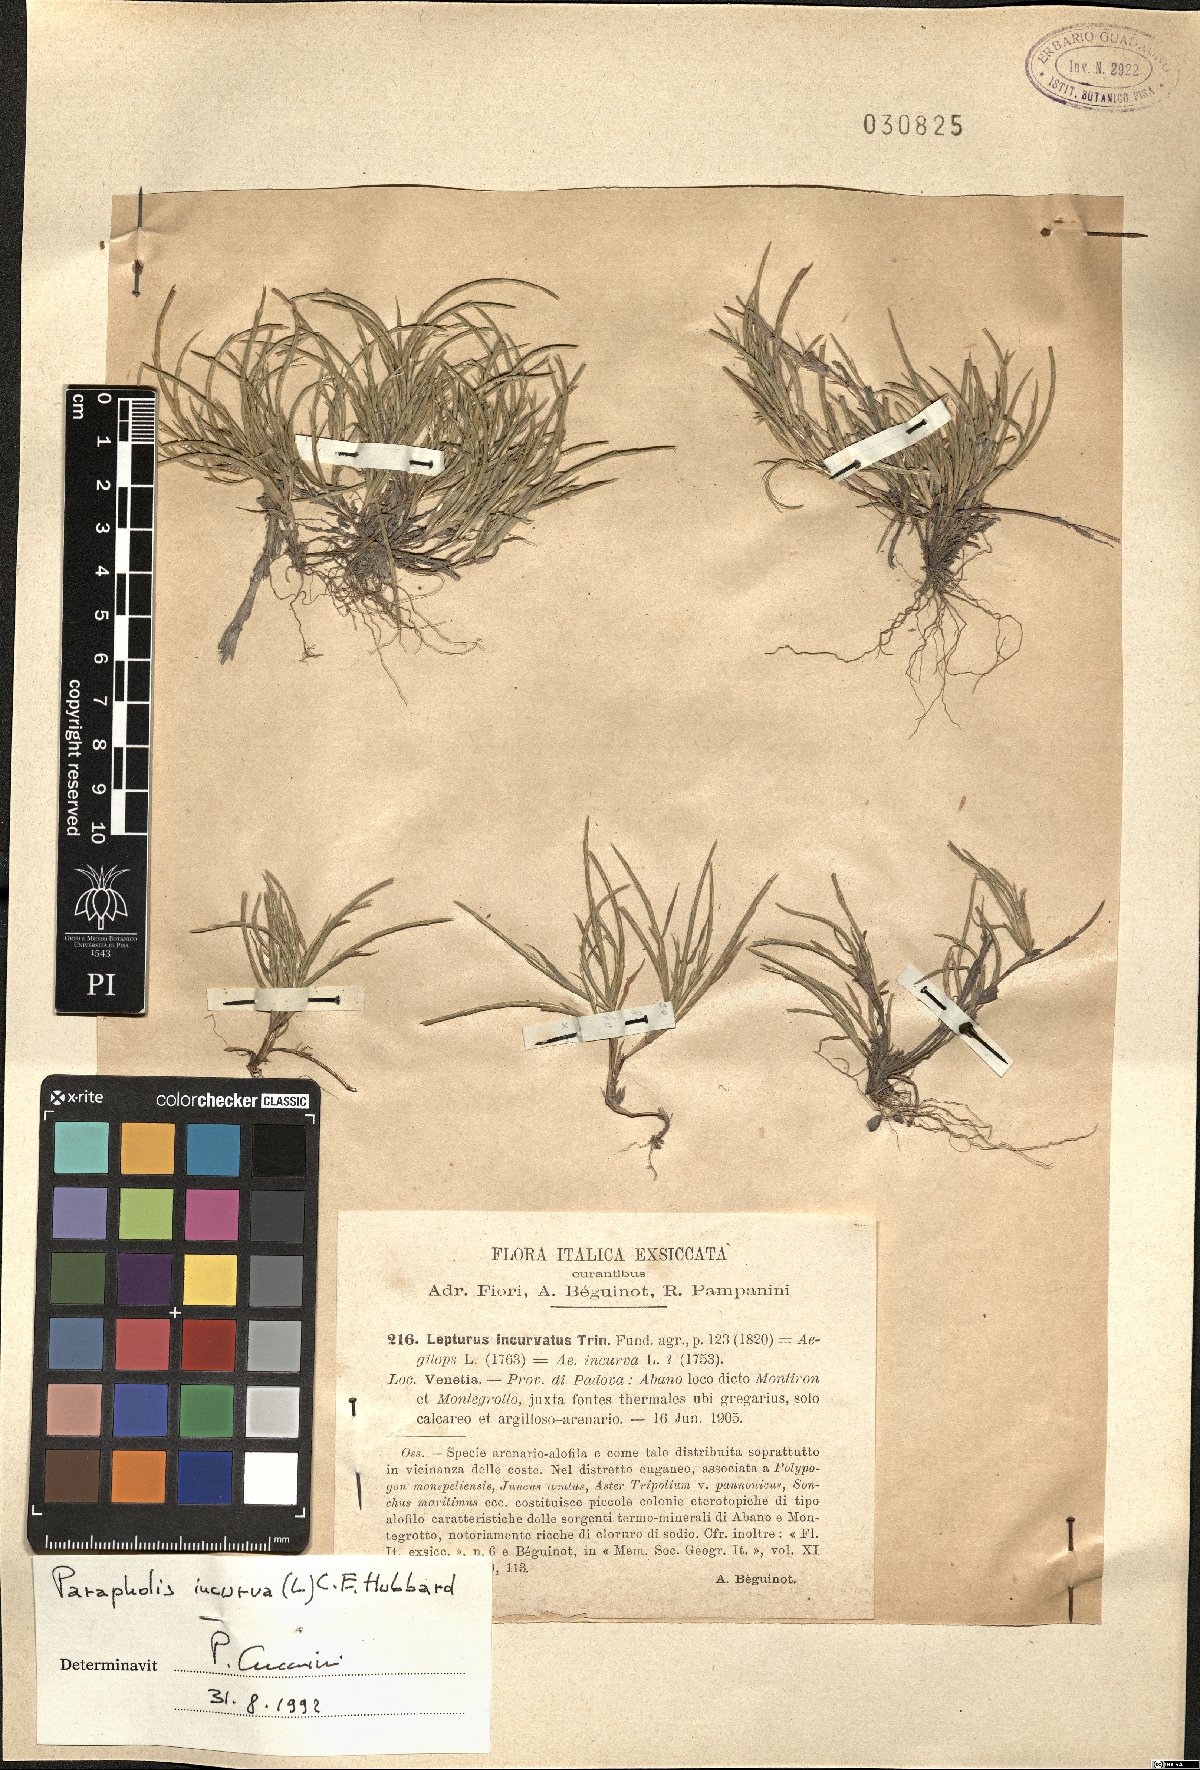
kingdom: Plantae
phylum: Tracheophyta
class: Liliopsida
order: Poales
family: Poaceae
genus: Parapholis
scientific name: Parapholis incurva
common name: Curved sicklegrass
